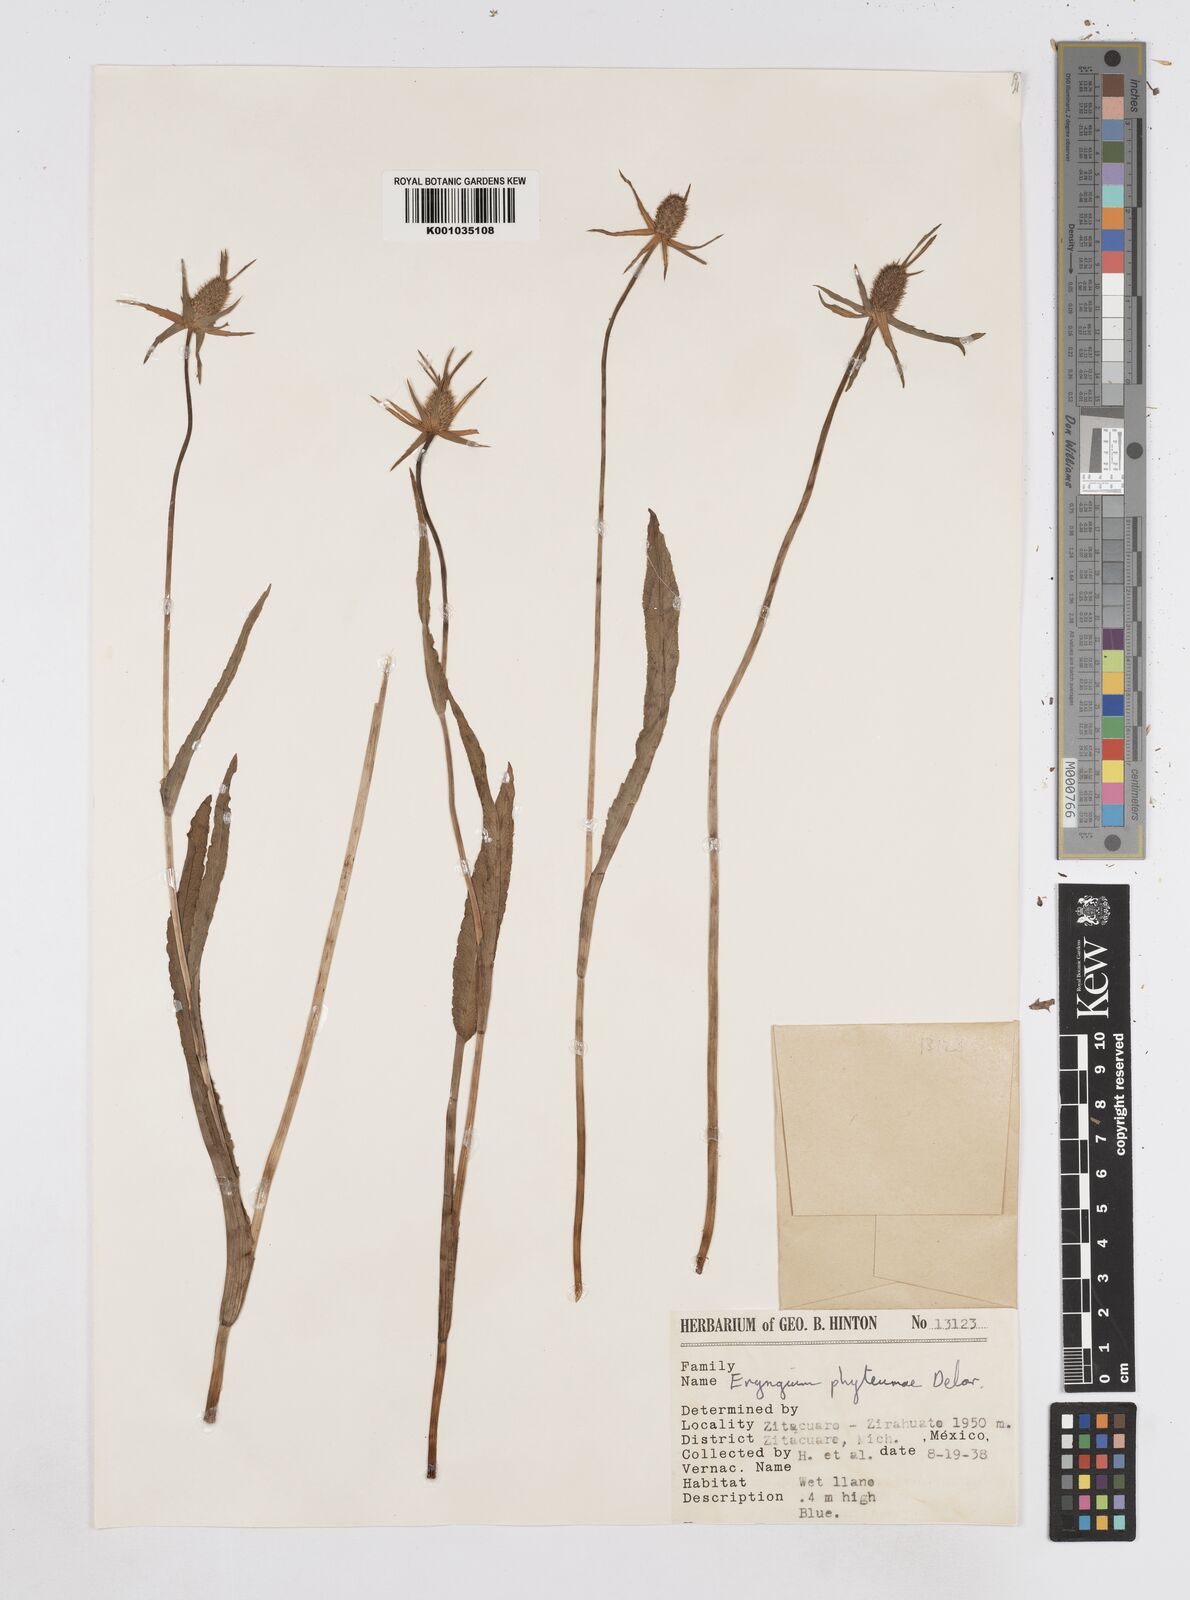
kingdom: Plantae
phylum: Tracheophyta
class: Magnoliopsida
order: Apiales
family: Apiaceae
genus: Eryngium
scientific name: Eryngium phyteumae
